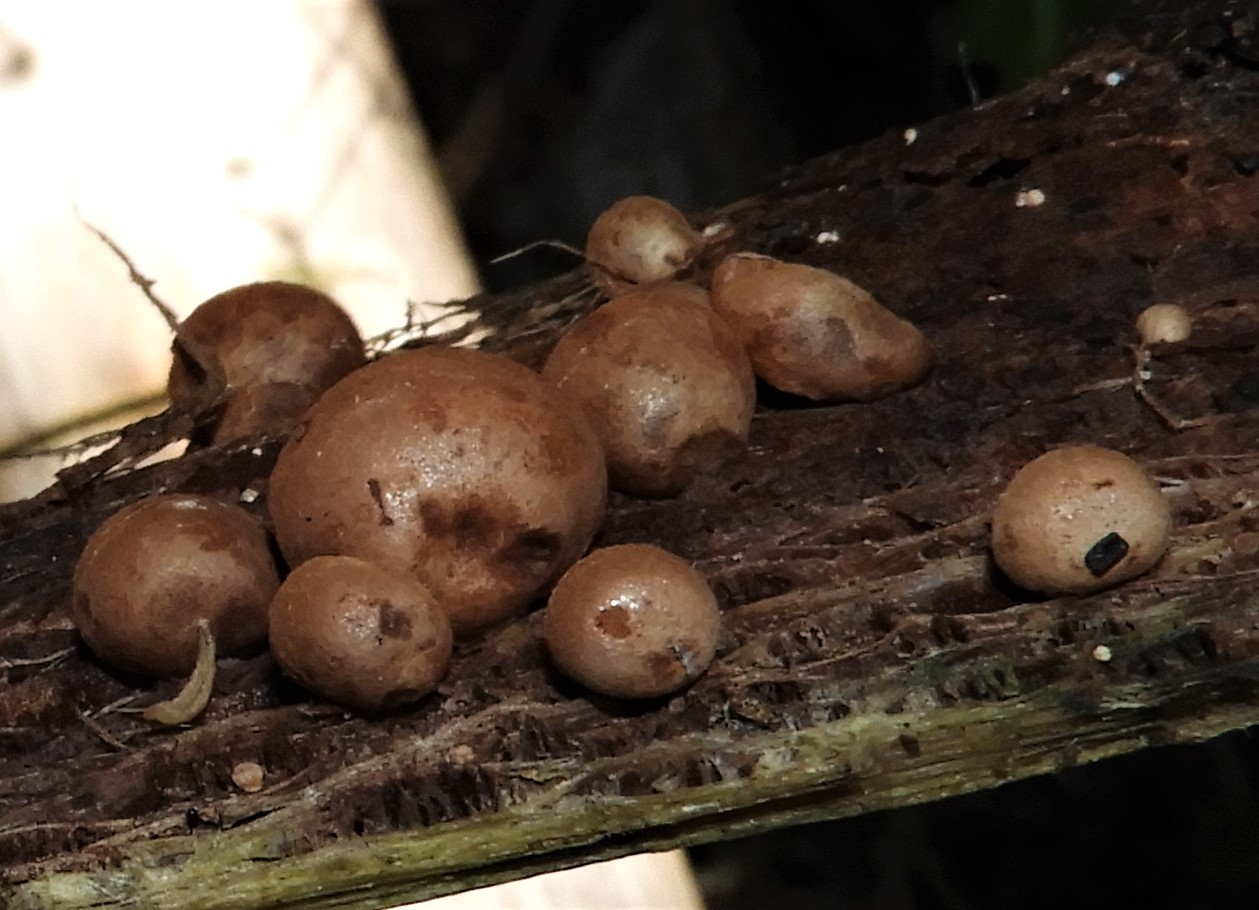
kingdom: Fungi
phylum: Basidiomycota
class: Agaricomycetes
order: Agaricales
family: Strophariaceae
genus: Deconica
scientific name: Deconica horizontalis
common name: ved-stråhat
